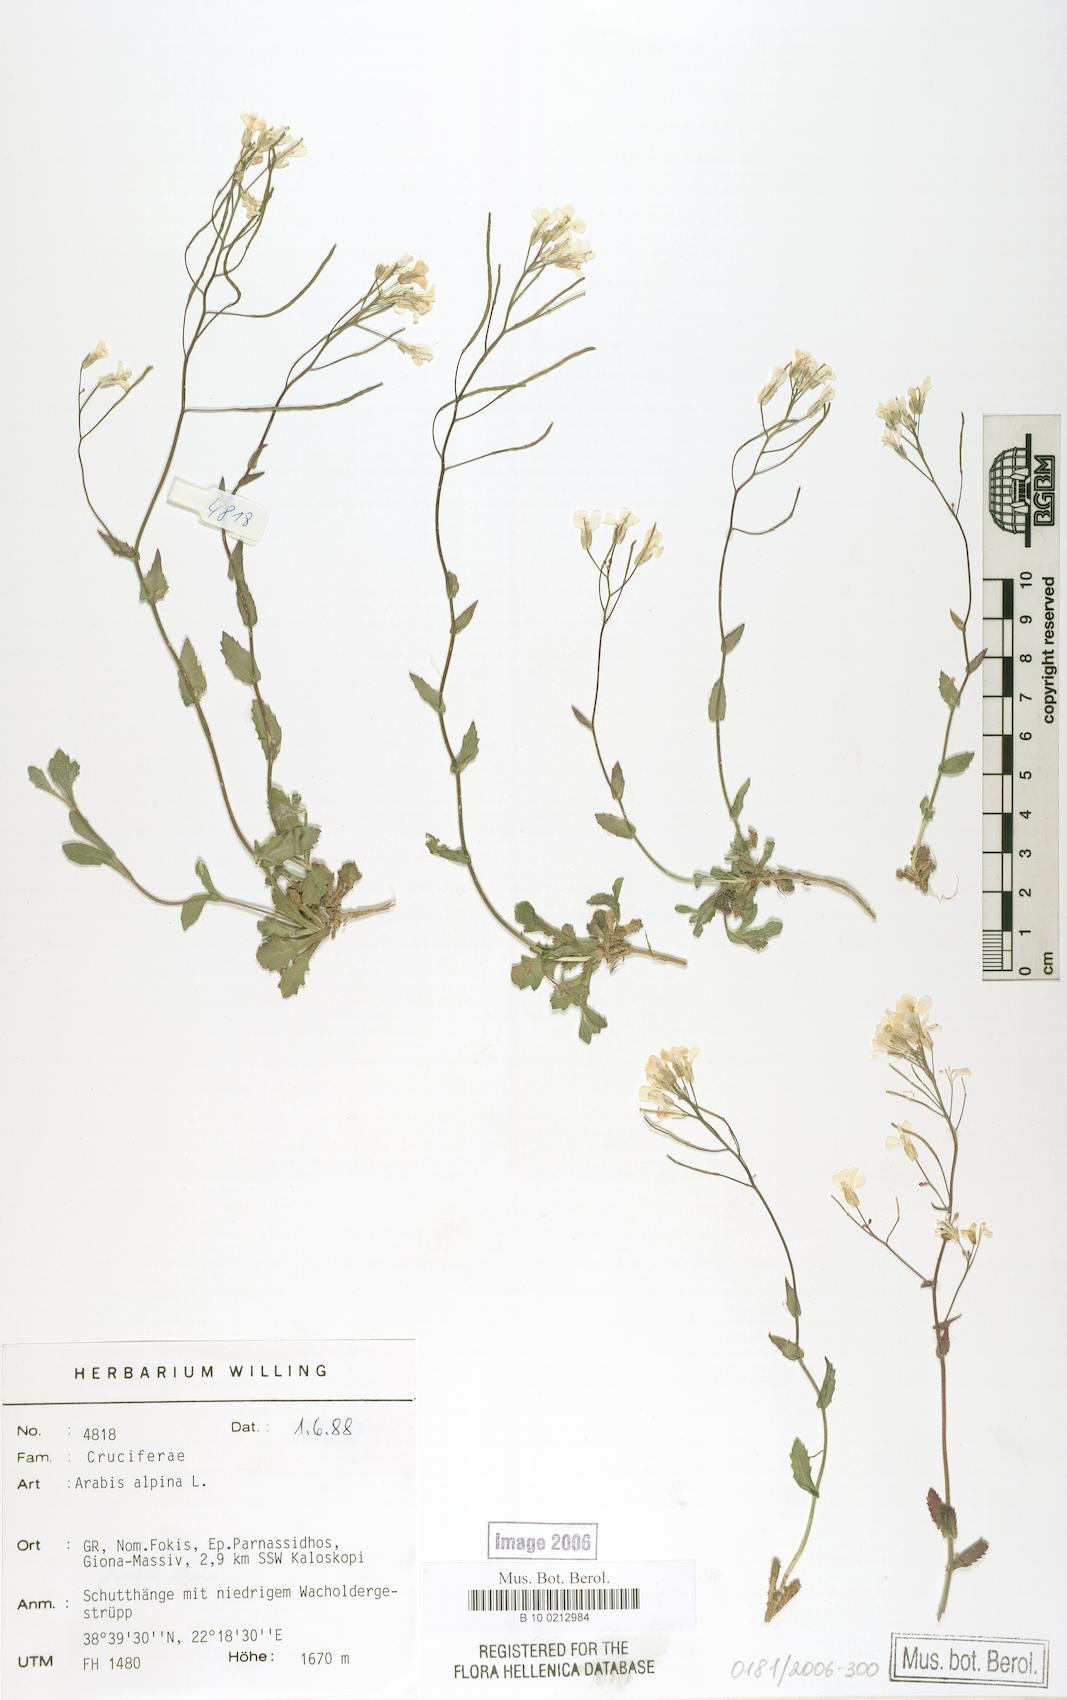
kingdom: Plantae
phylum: Tracheophyta
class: Magnoliopsida
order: Brassicales
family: Brassicaceae
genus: Arabis
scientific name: Arabis alpina
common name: Alpine rock-cress
